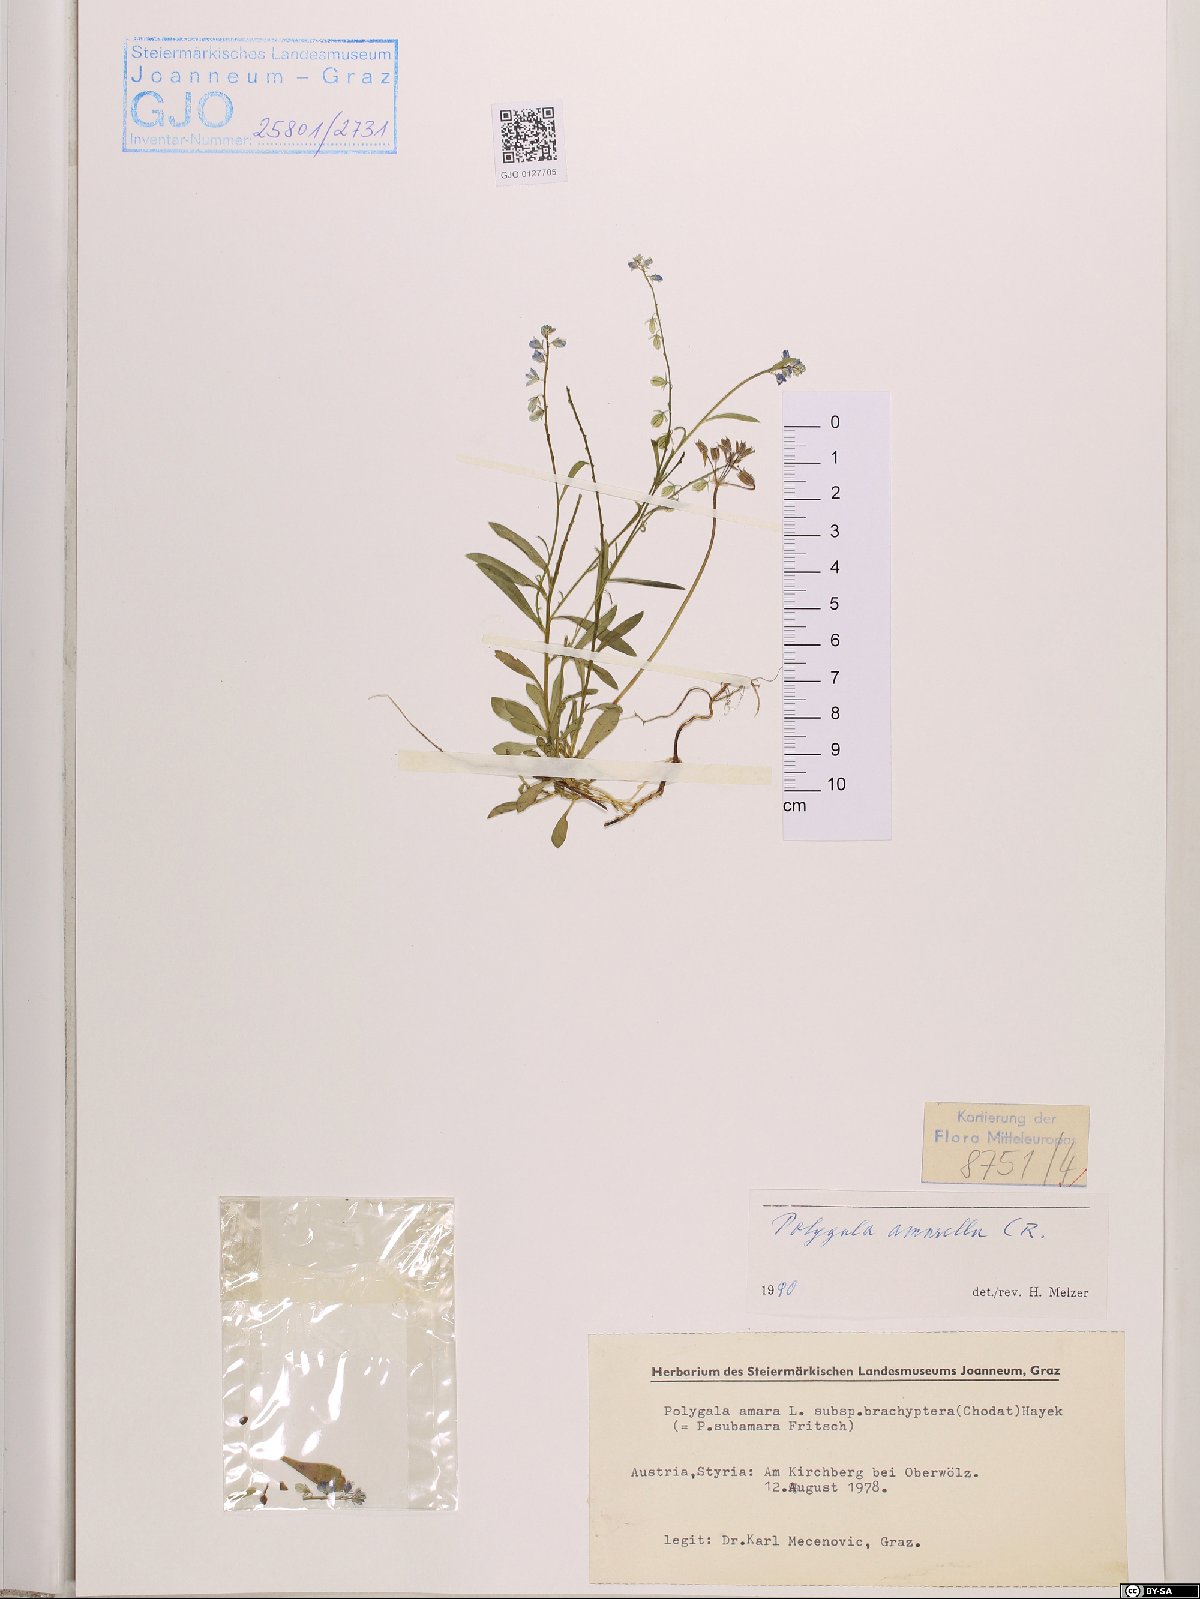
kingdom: Plantae
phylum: Tracheophyta
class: Magnoliopsida
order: Fabales
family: Polygalaceae
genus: Polygala
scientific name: Polygala amarella
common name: Dwarf milkwort
